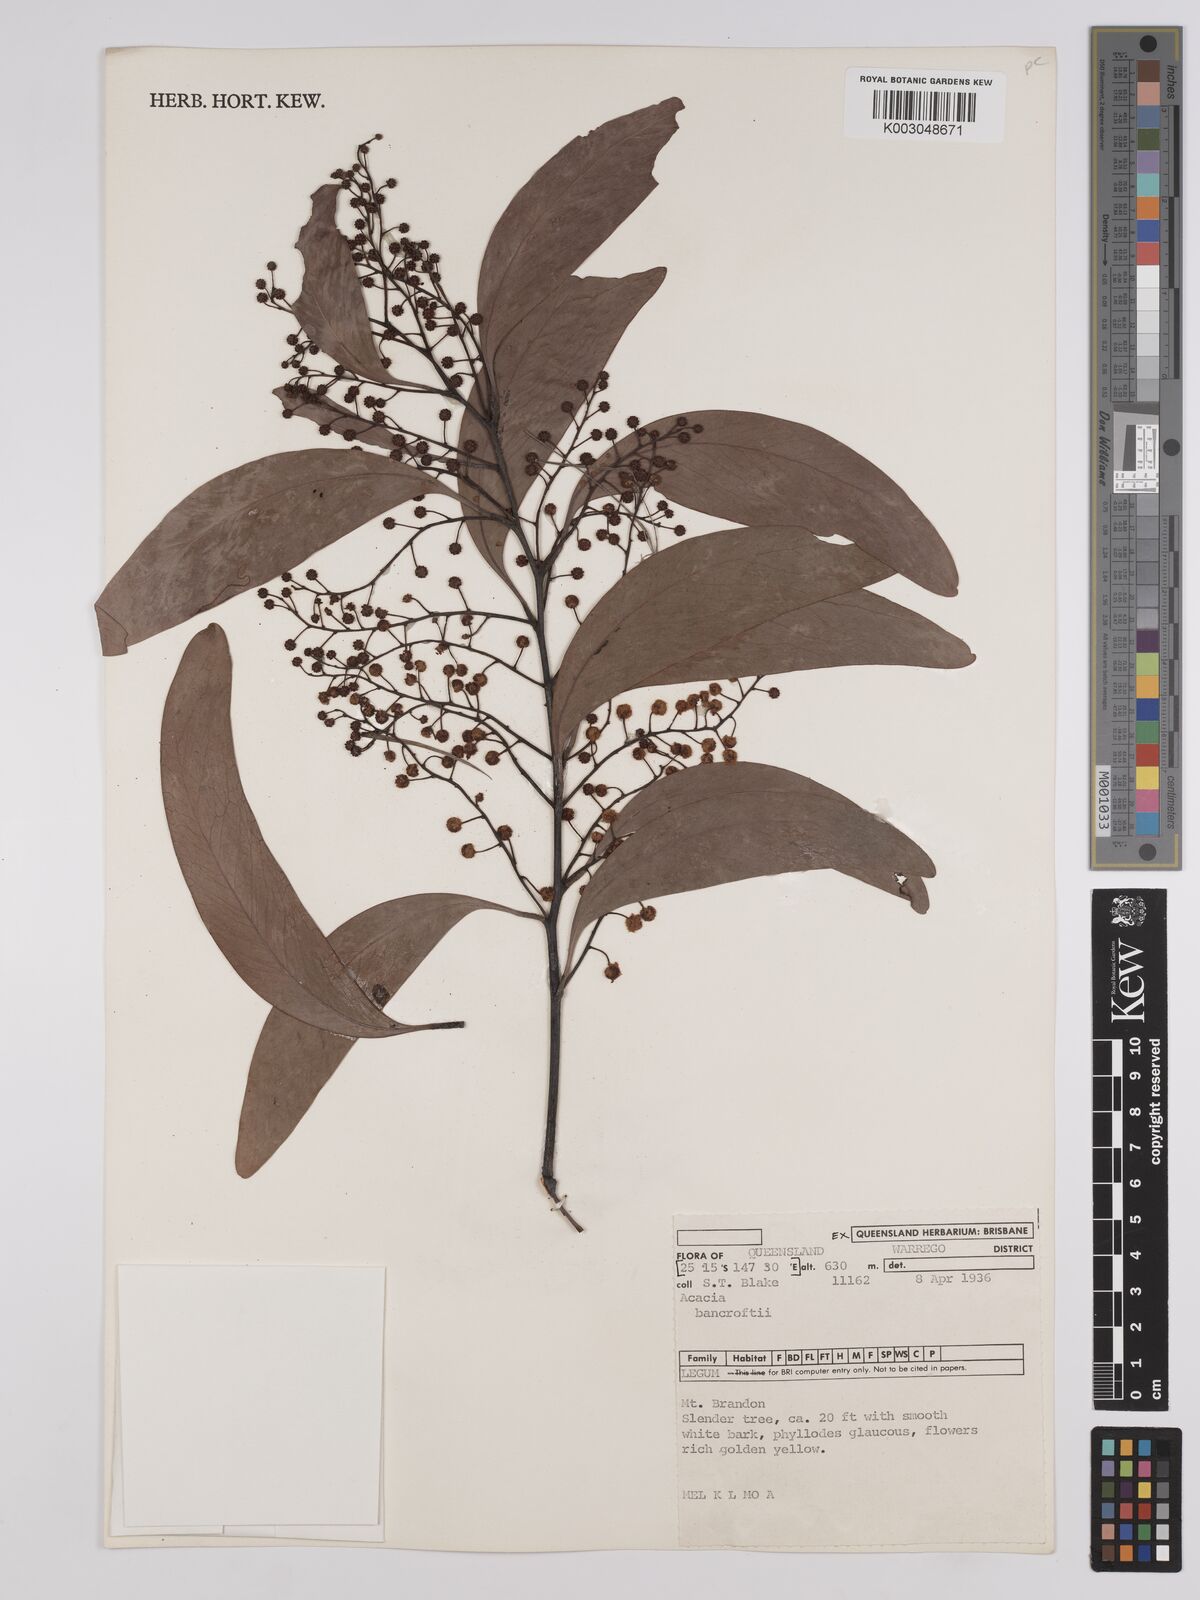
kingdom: Plantae
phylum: Tracheophyta
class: Magnoliopsida
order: Fabales
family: Fabaceae
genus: Acacia
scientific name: Acacia
